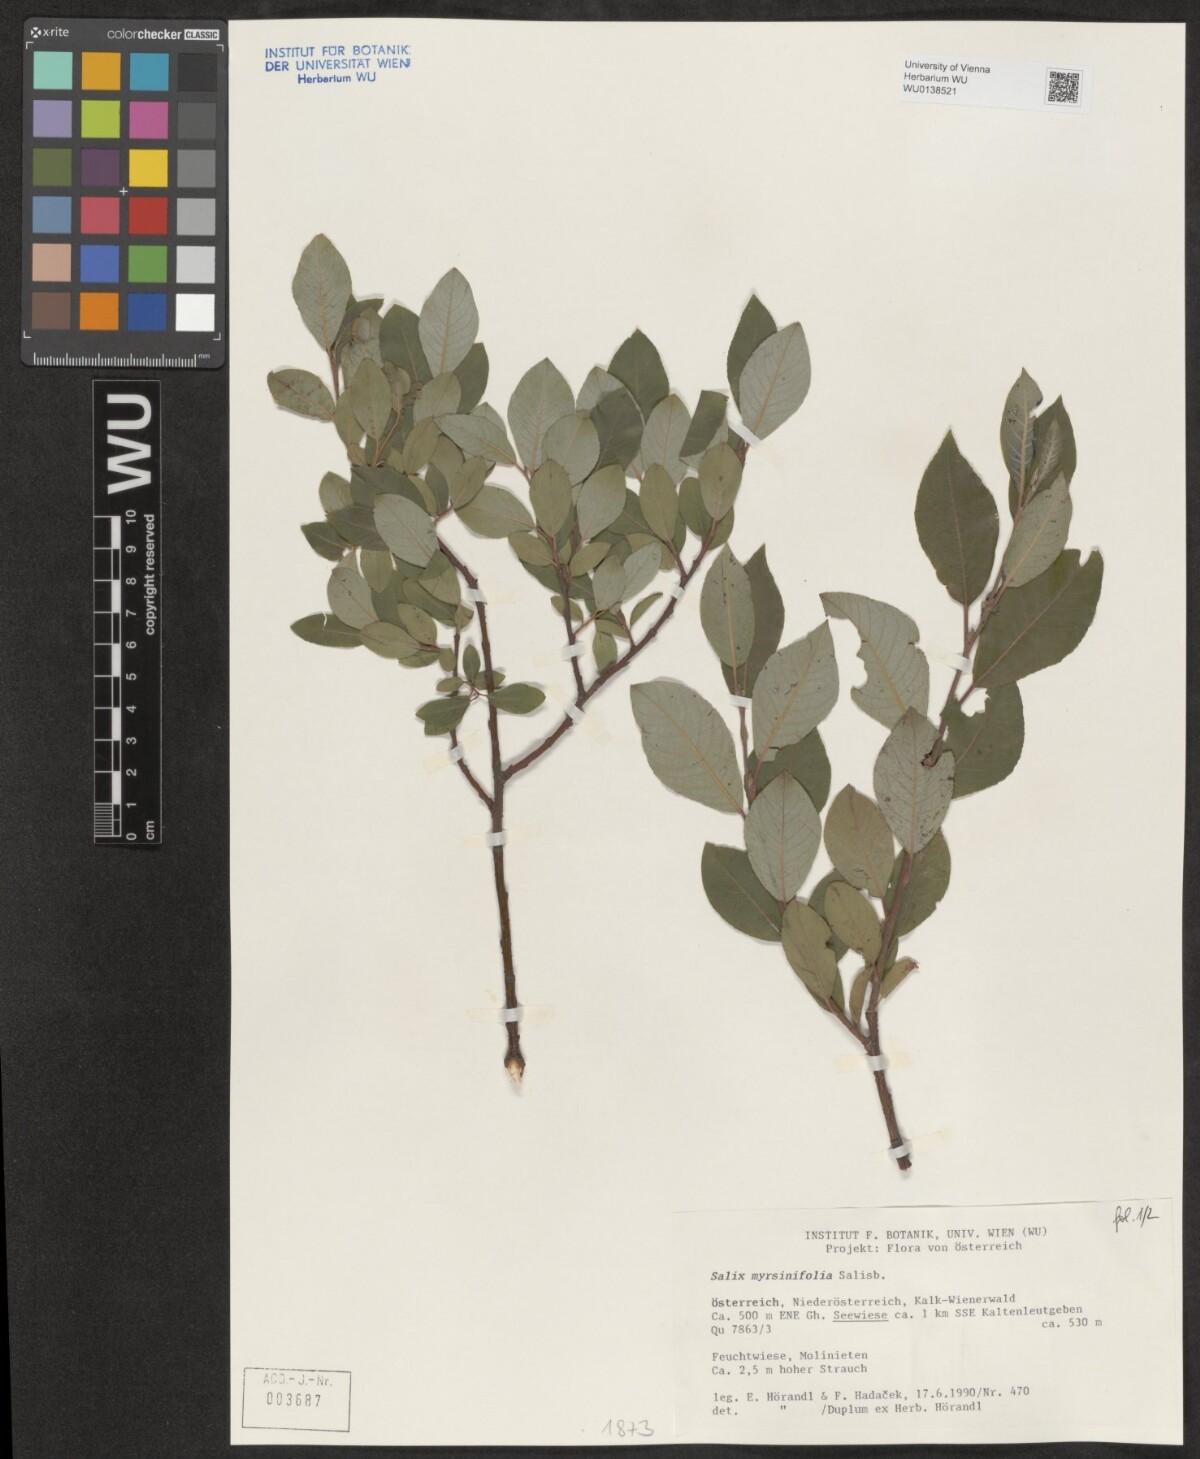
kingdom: Plantae
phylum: Tracheophyta
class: Magnoliopsida
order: Malpighiales
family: Salicaceae
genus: Salix
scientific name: Salix myrsinifolia
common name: Dark-leaved willow
